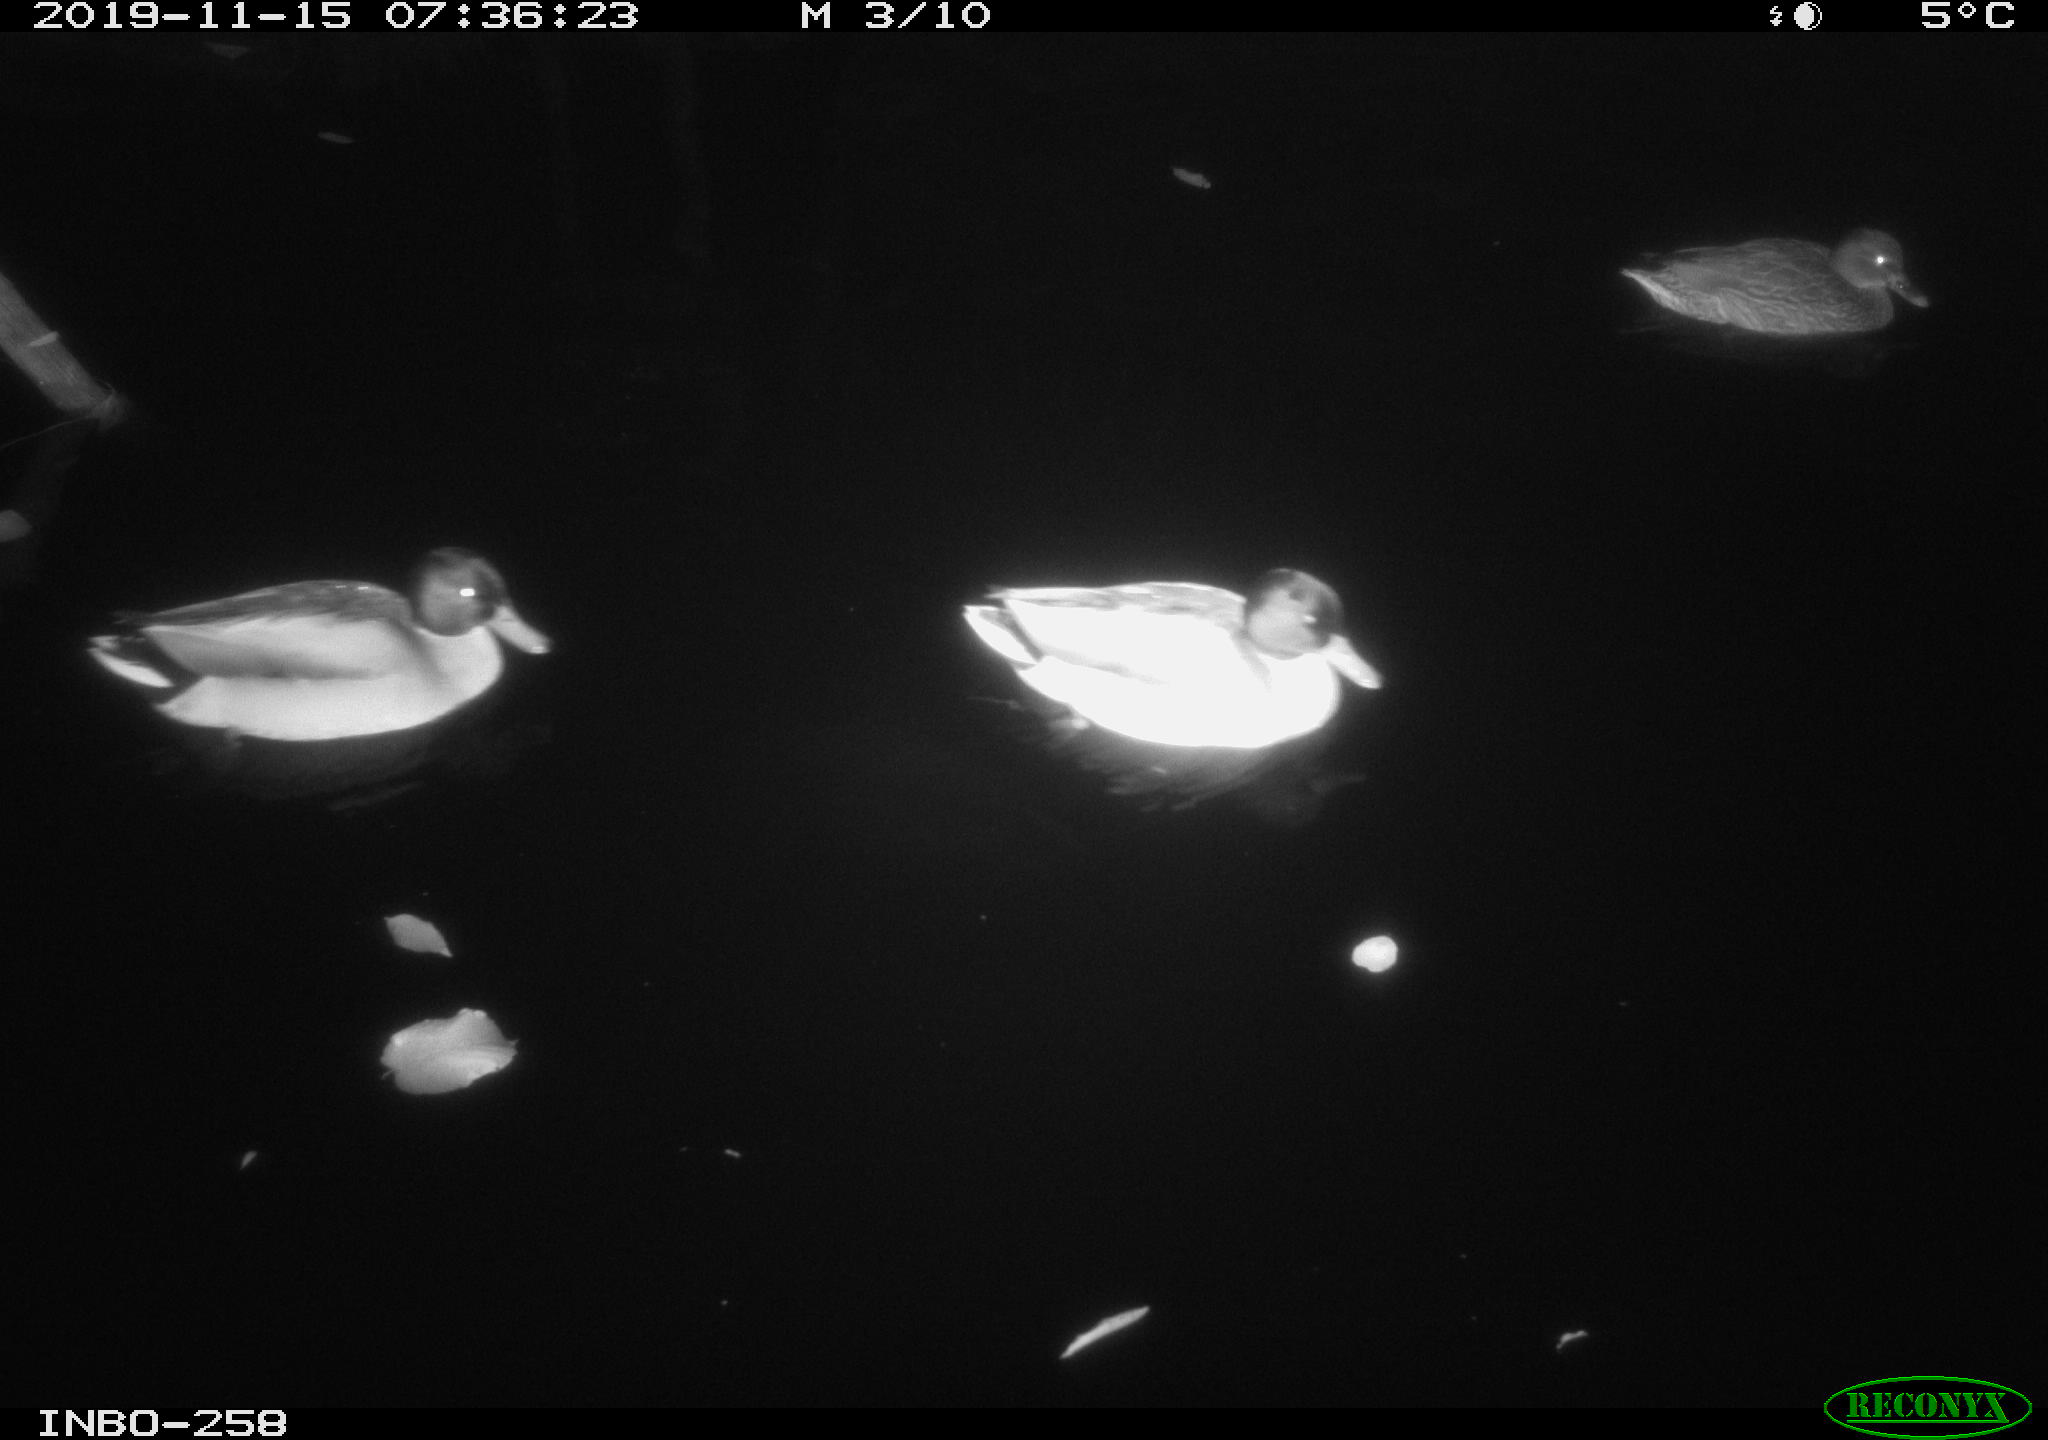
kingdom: Animalia
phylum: Chordata
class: Aves
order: Anseriformes
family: Anatidae
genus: Anas
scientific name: Anas platyrhynchos
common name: Mallard
